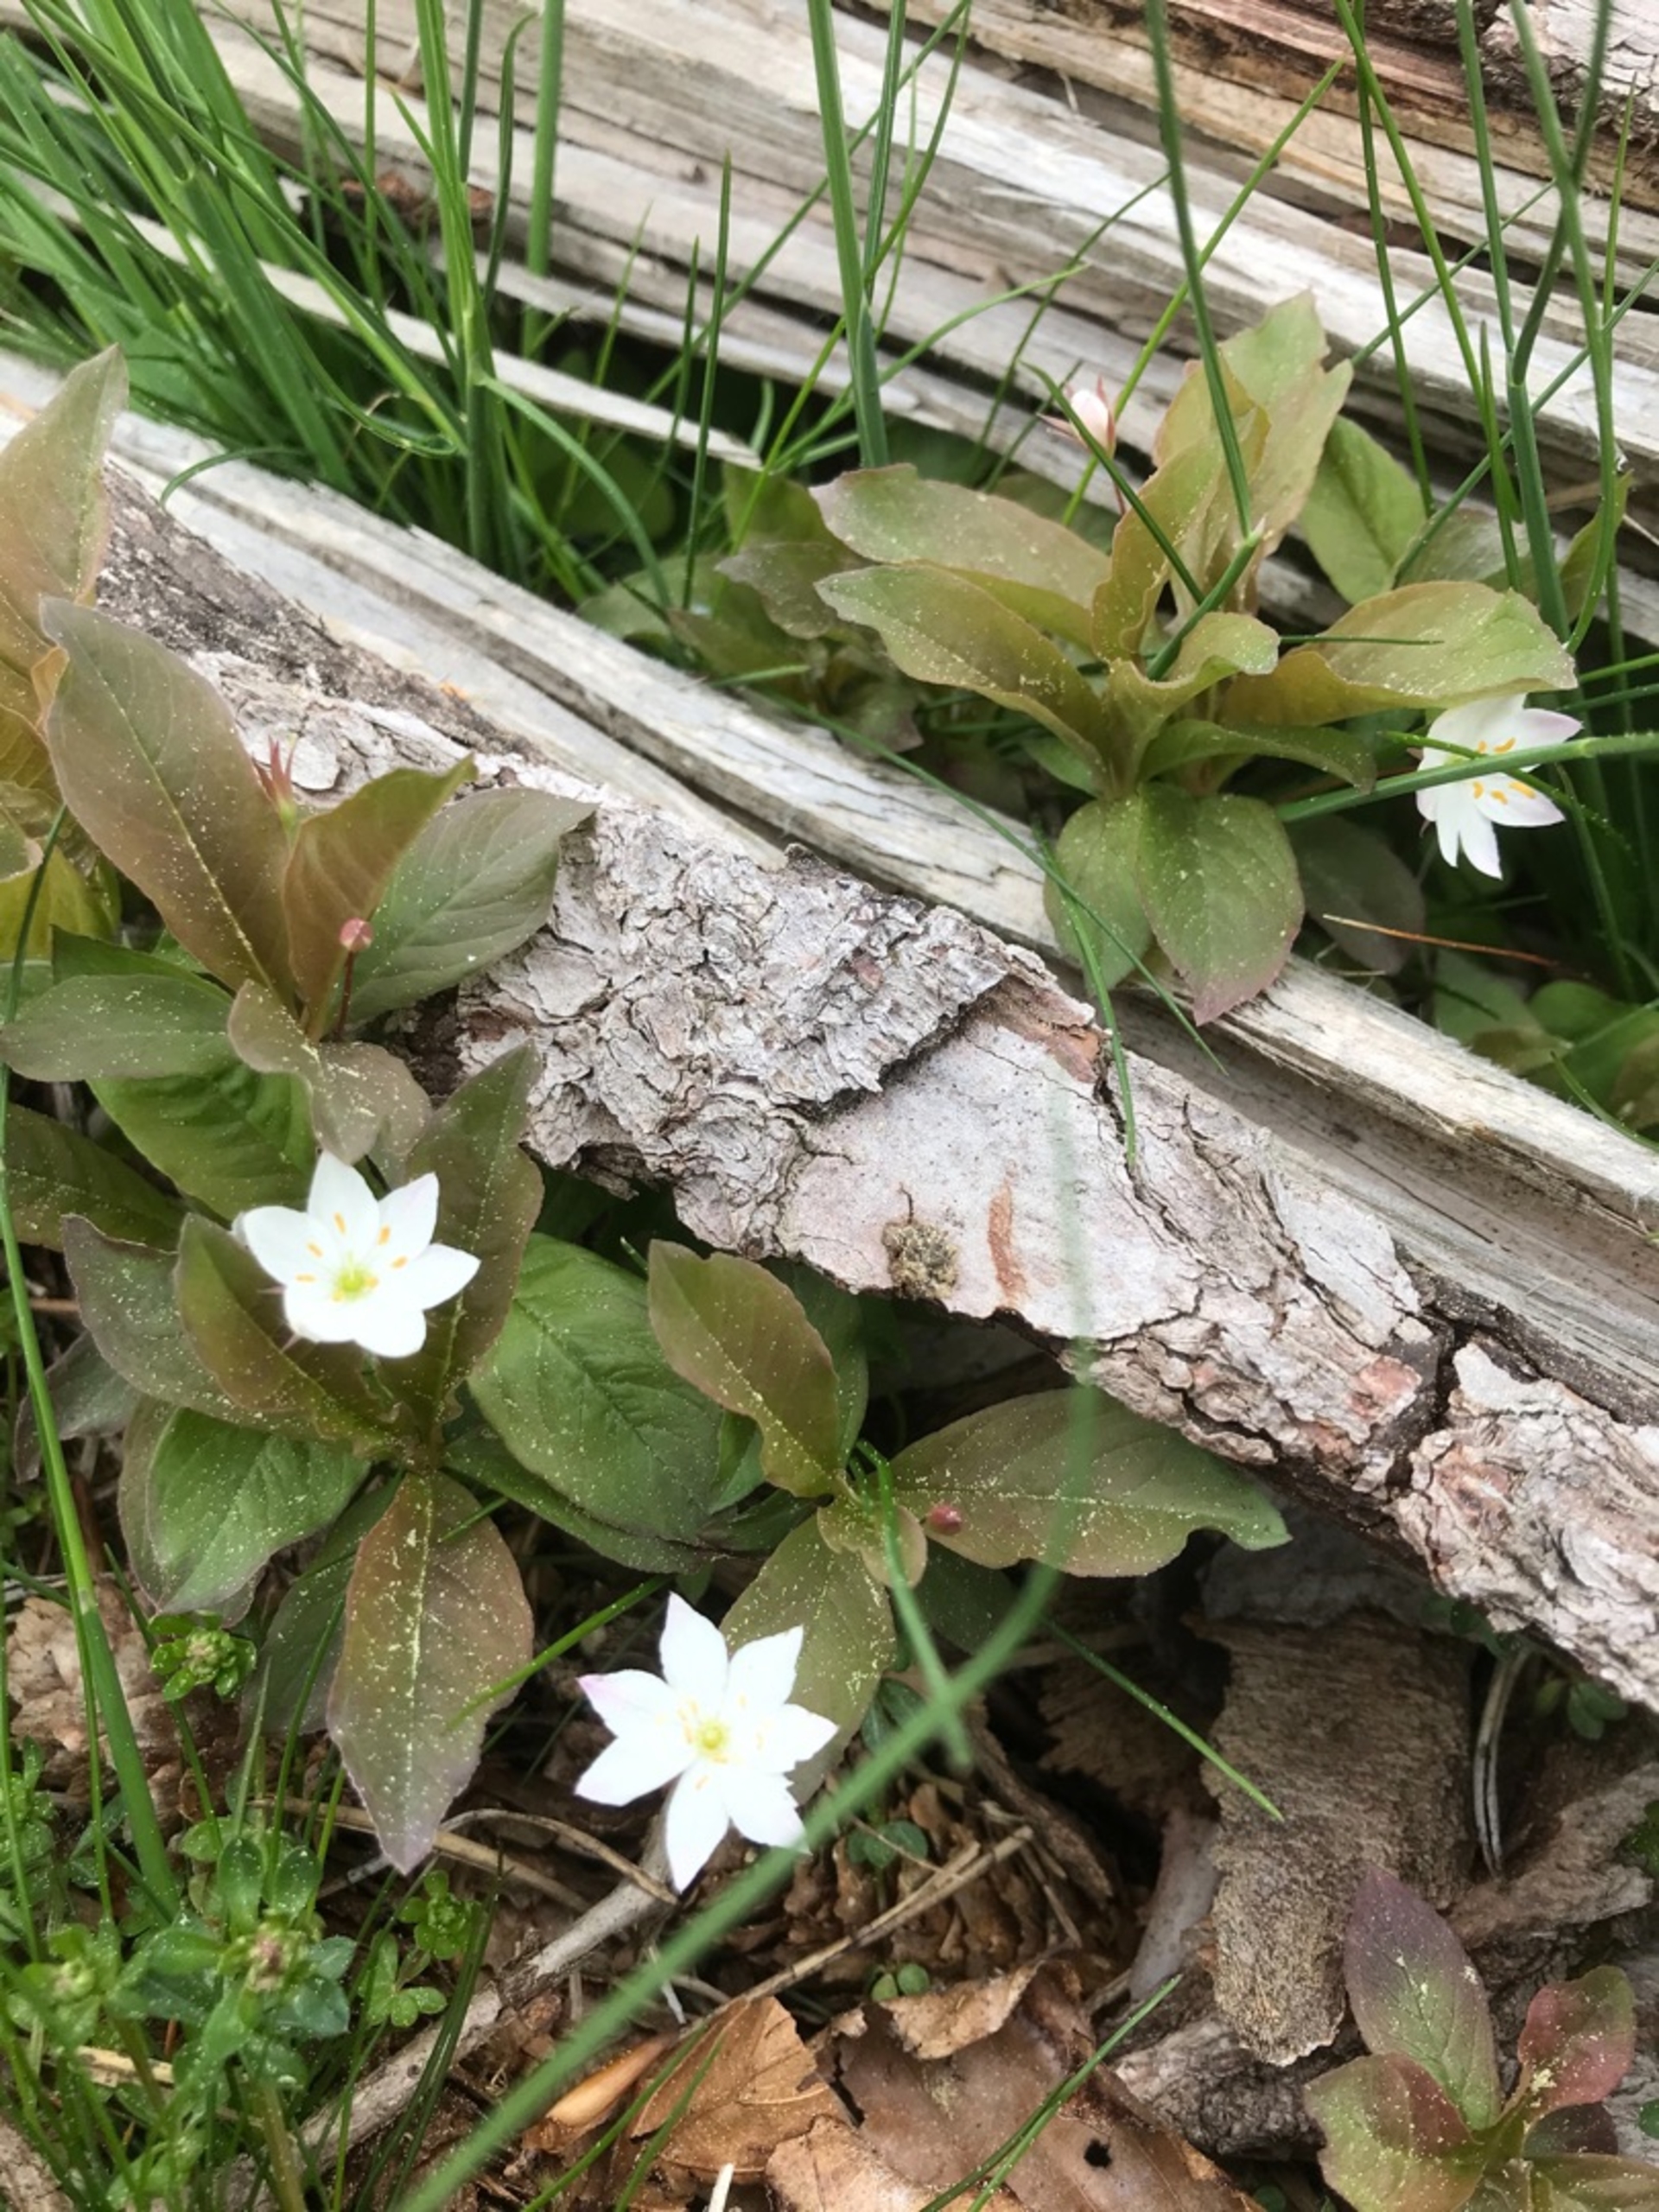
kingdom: Plantae
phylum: Tracheophyta
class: Magnoliopsida
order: Ericales
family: Primulaceae
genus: Lysimachia
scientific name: Lysimachia europaea
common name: Skovstjerne
